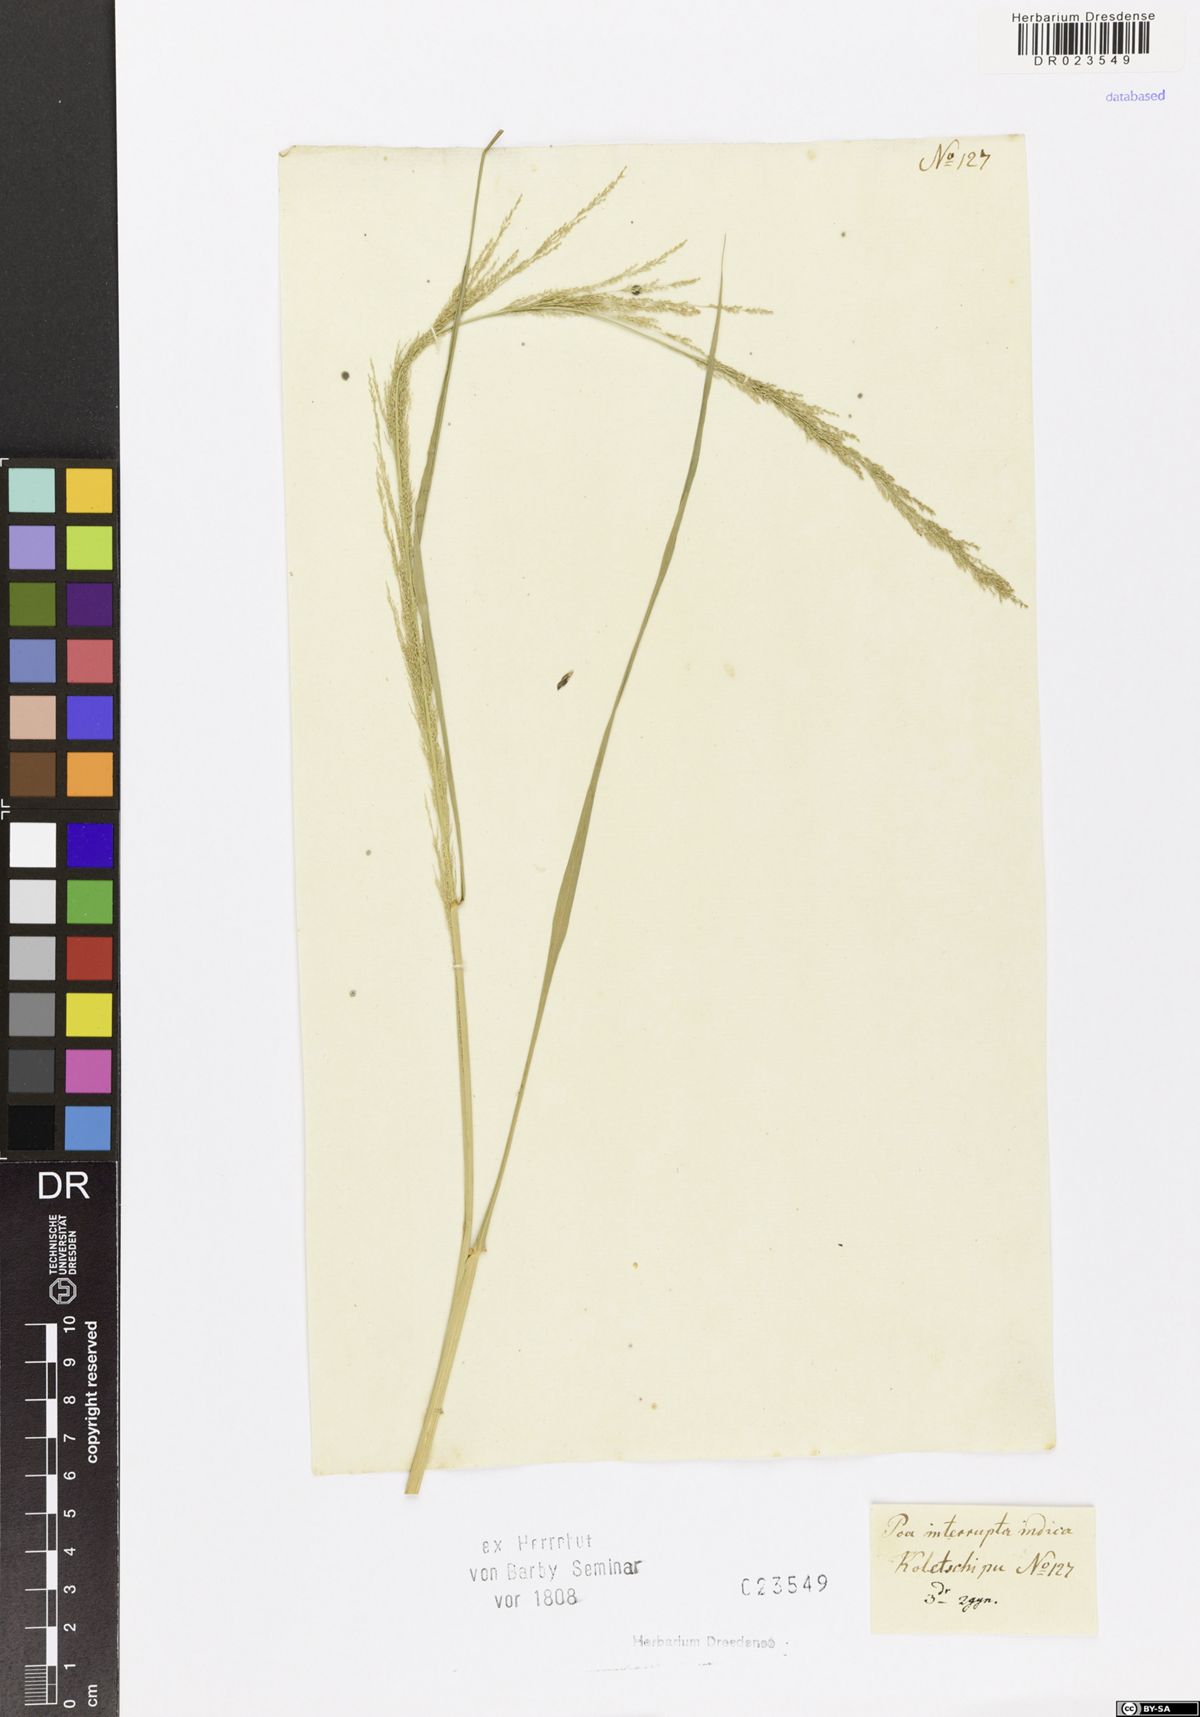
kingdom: Plantae
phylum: Tracheophyta
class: Liliopsida
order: Poales
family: Poaceae
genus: Eragrostis
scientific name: Eragrostis japonica
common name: Pond lovegrass
